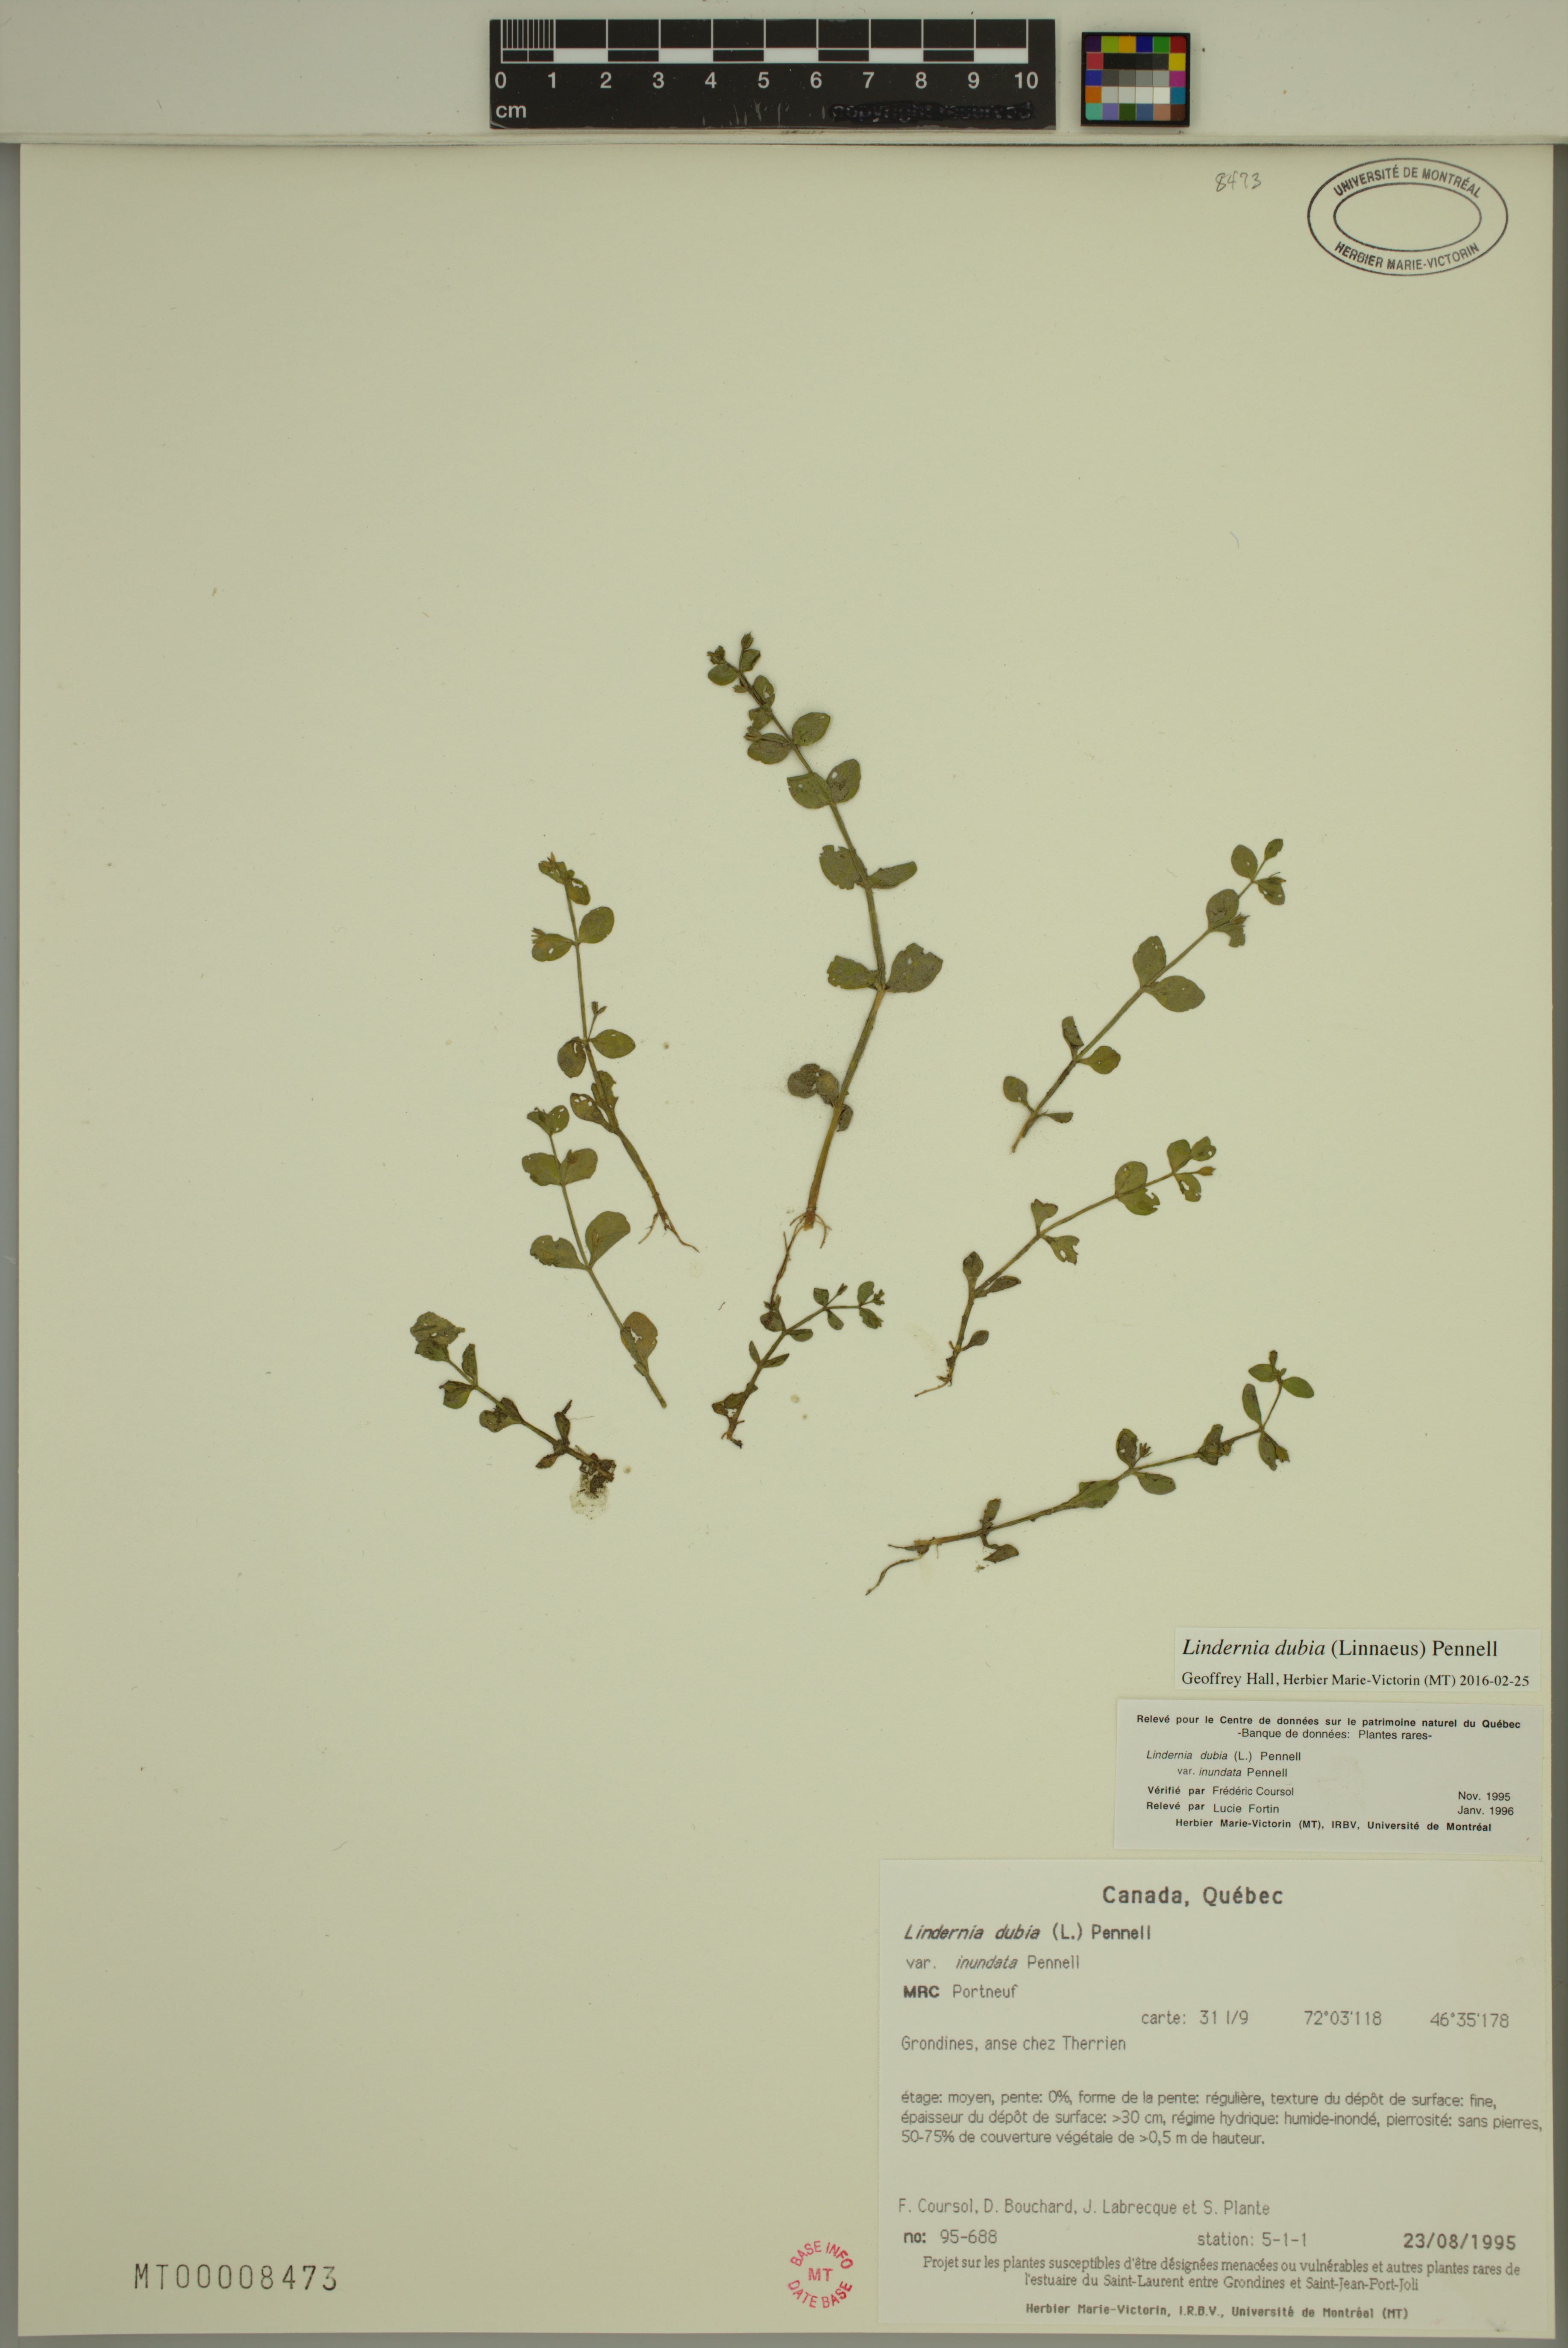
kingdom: Plantae
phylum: Tracheophyta
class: Magnoliopsida
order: Lamiales
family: Linderniaceae
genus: Lindernia
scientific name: Lindernia dubia
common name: Annual false pimpernel
